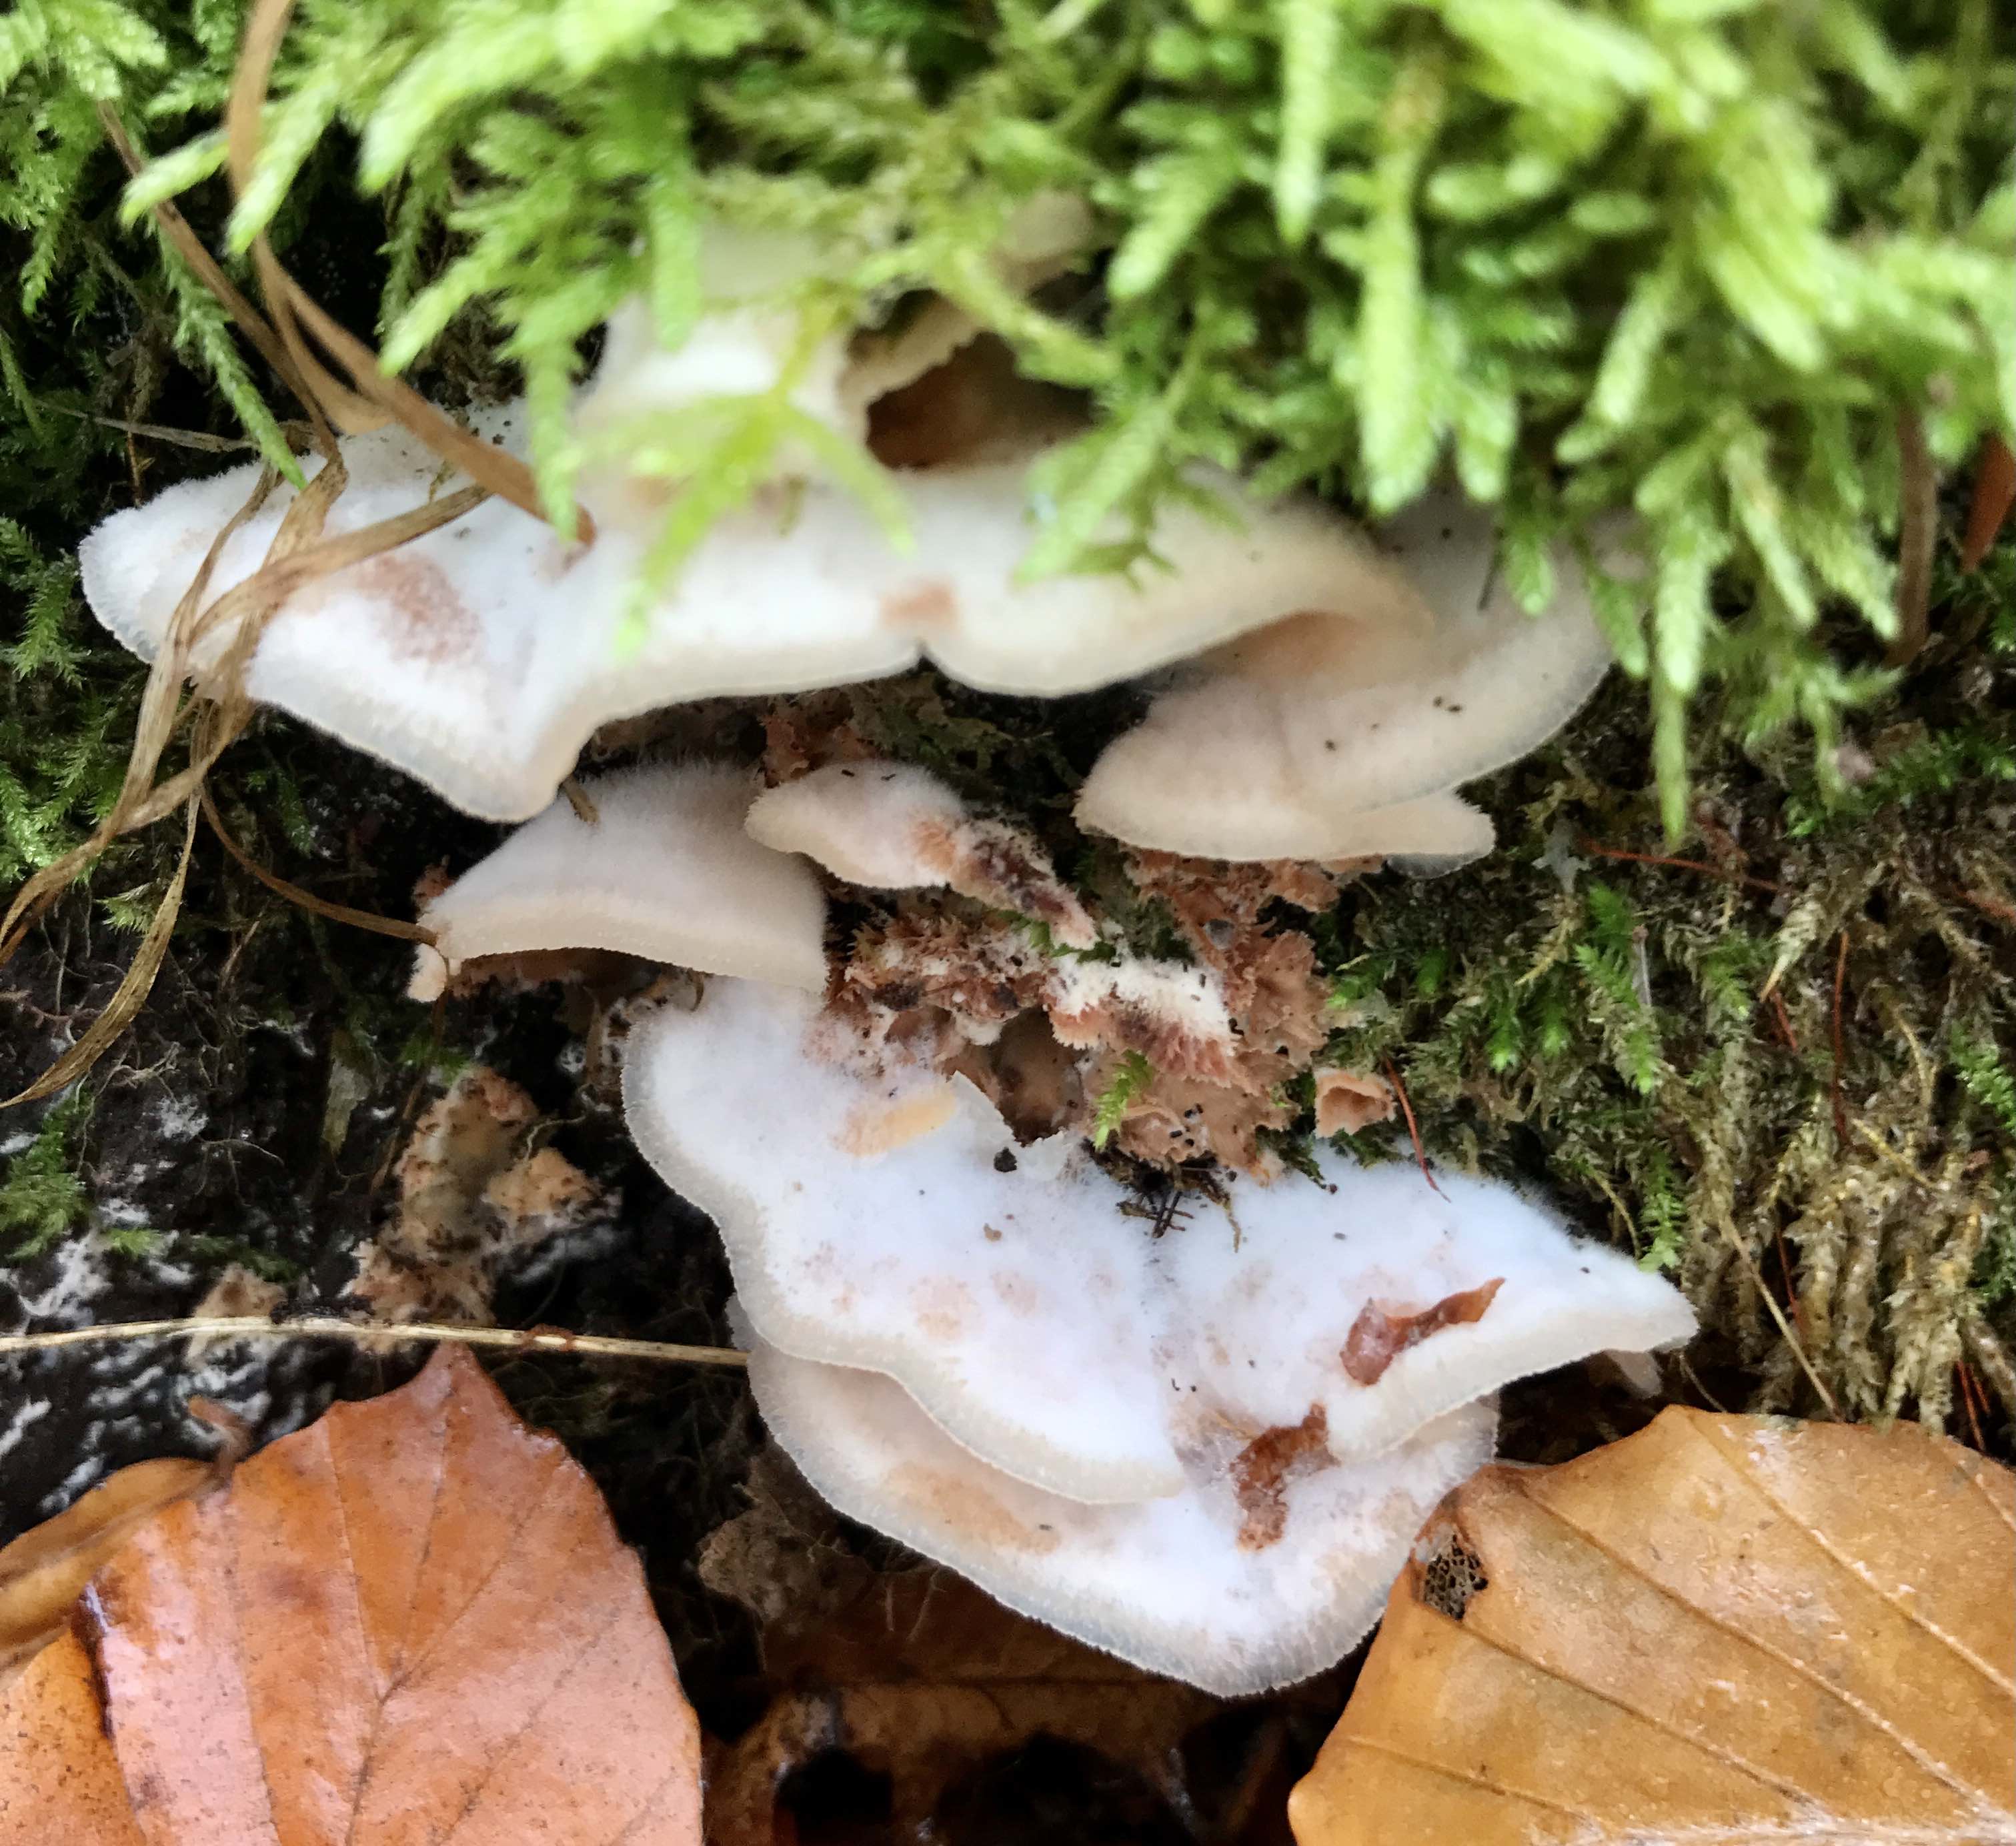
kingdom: Fungi
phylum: Basidiomycota
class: Agaricomycetes
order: Polyporales
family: Meruliaceae
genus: Phlebia
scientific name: Phlebia tremellosa
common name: bævrende åresvamp
